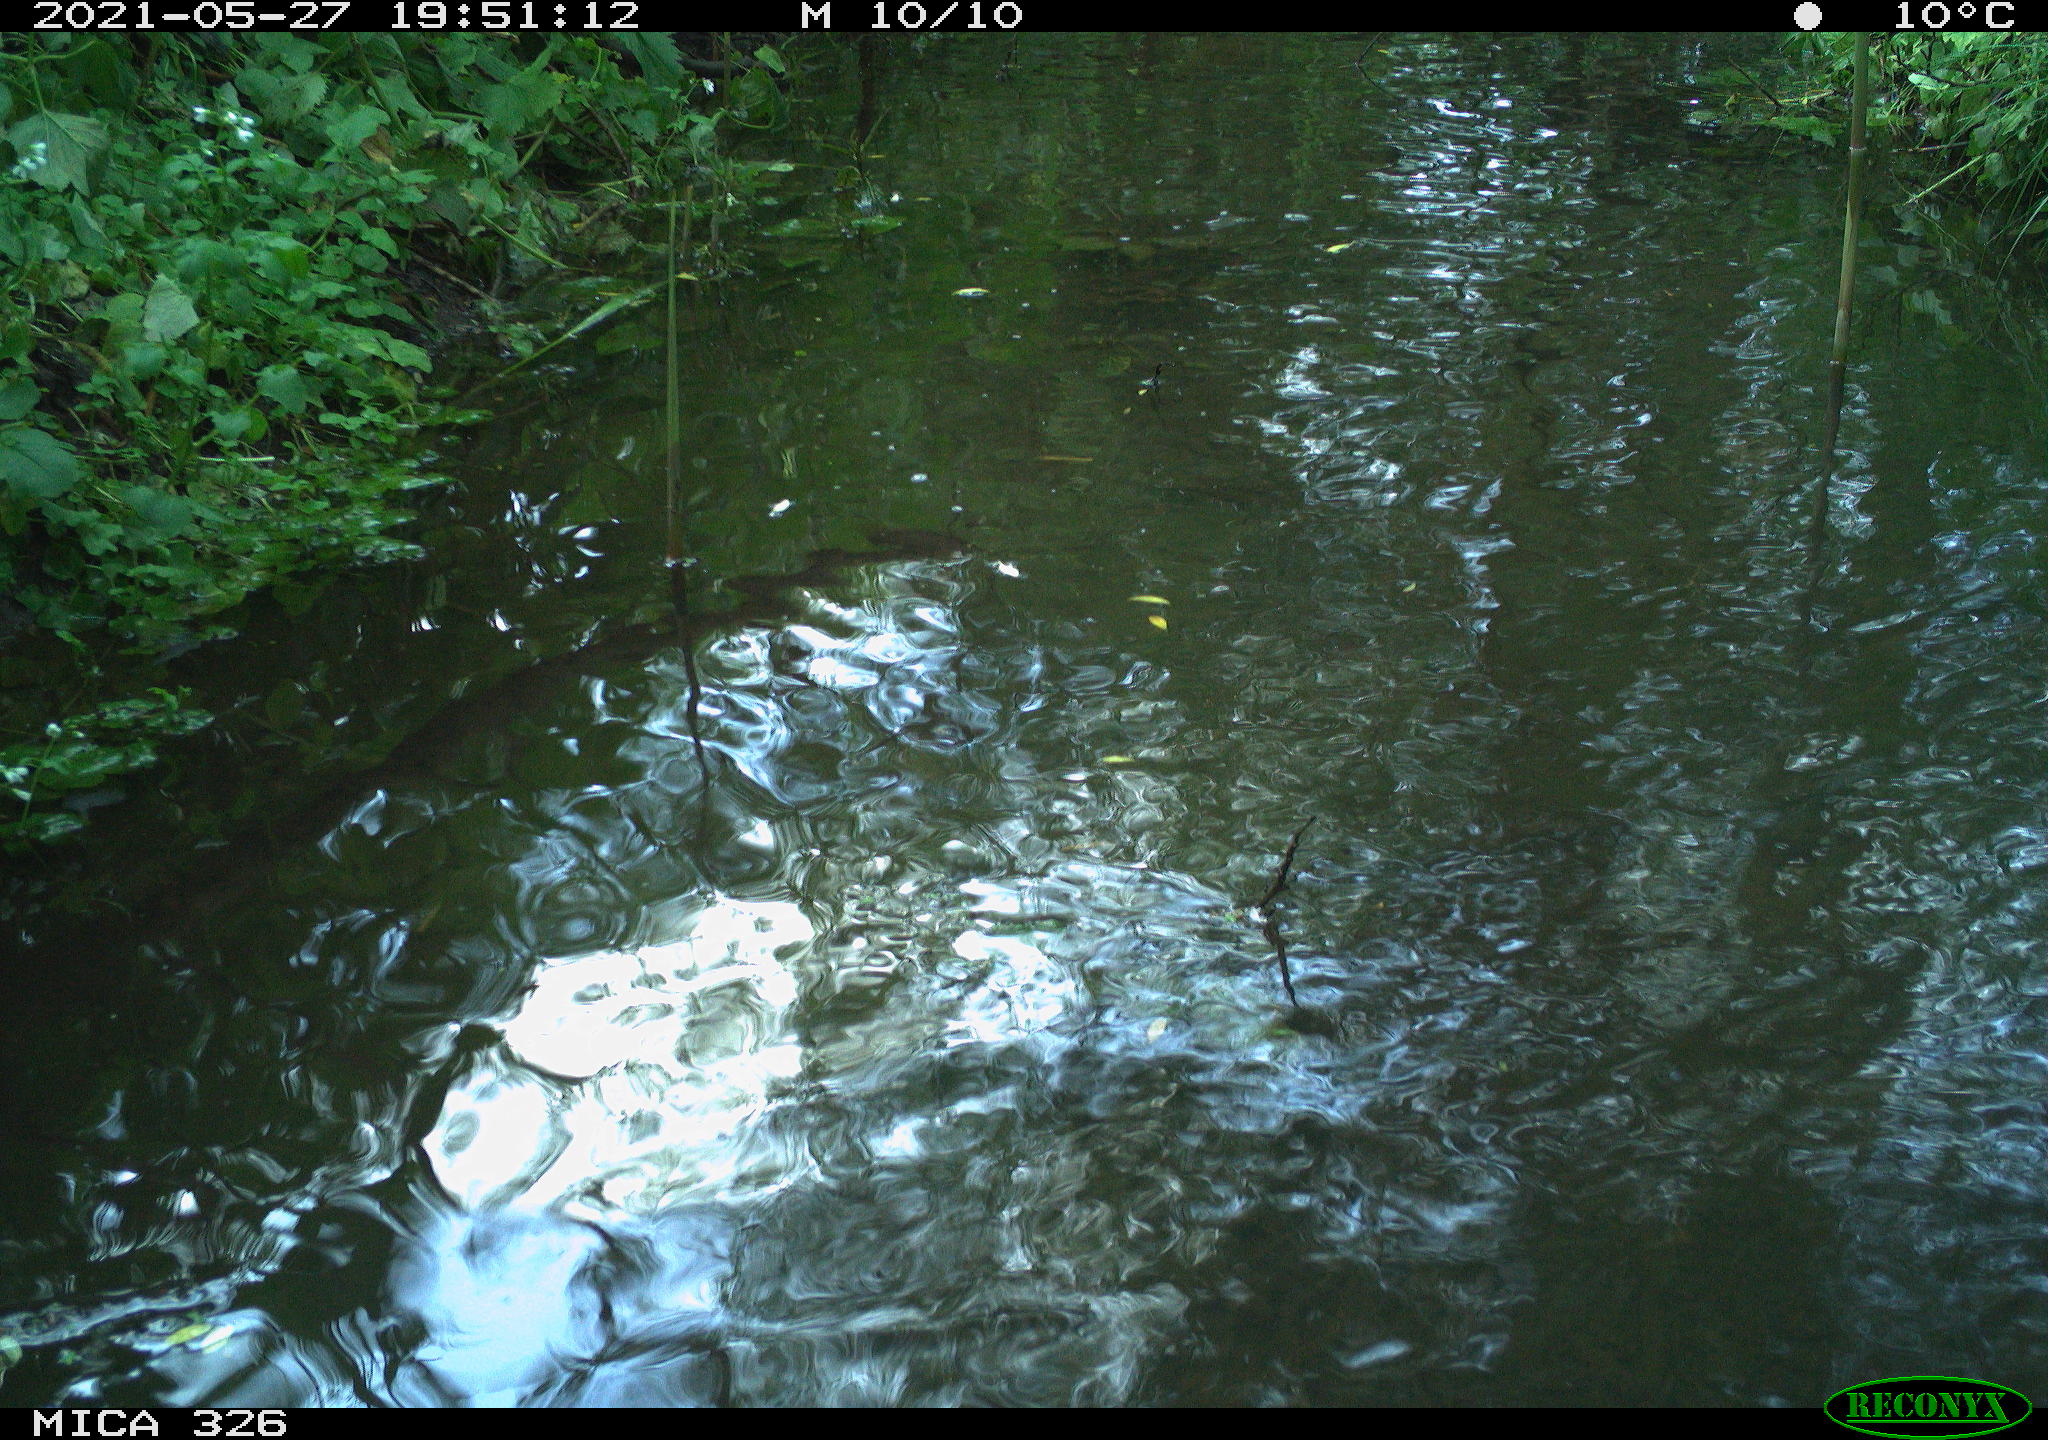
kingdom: Animalia
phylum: Chordata
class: Mammalia
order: Rodentia
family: Cricetidae
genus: Ondatra
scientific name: Ondatra zibethicus
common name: Muskrat
